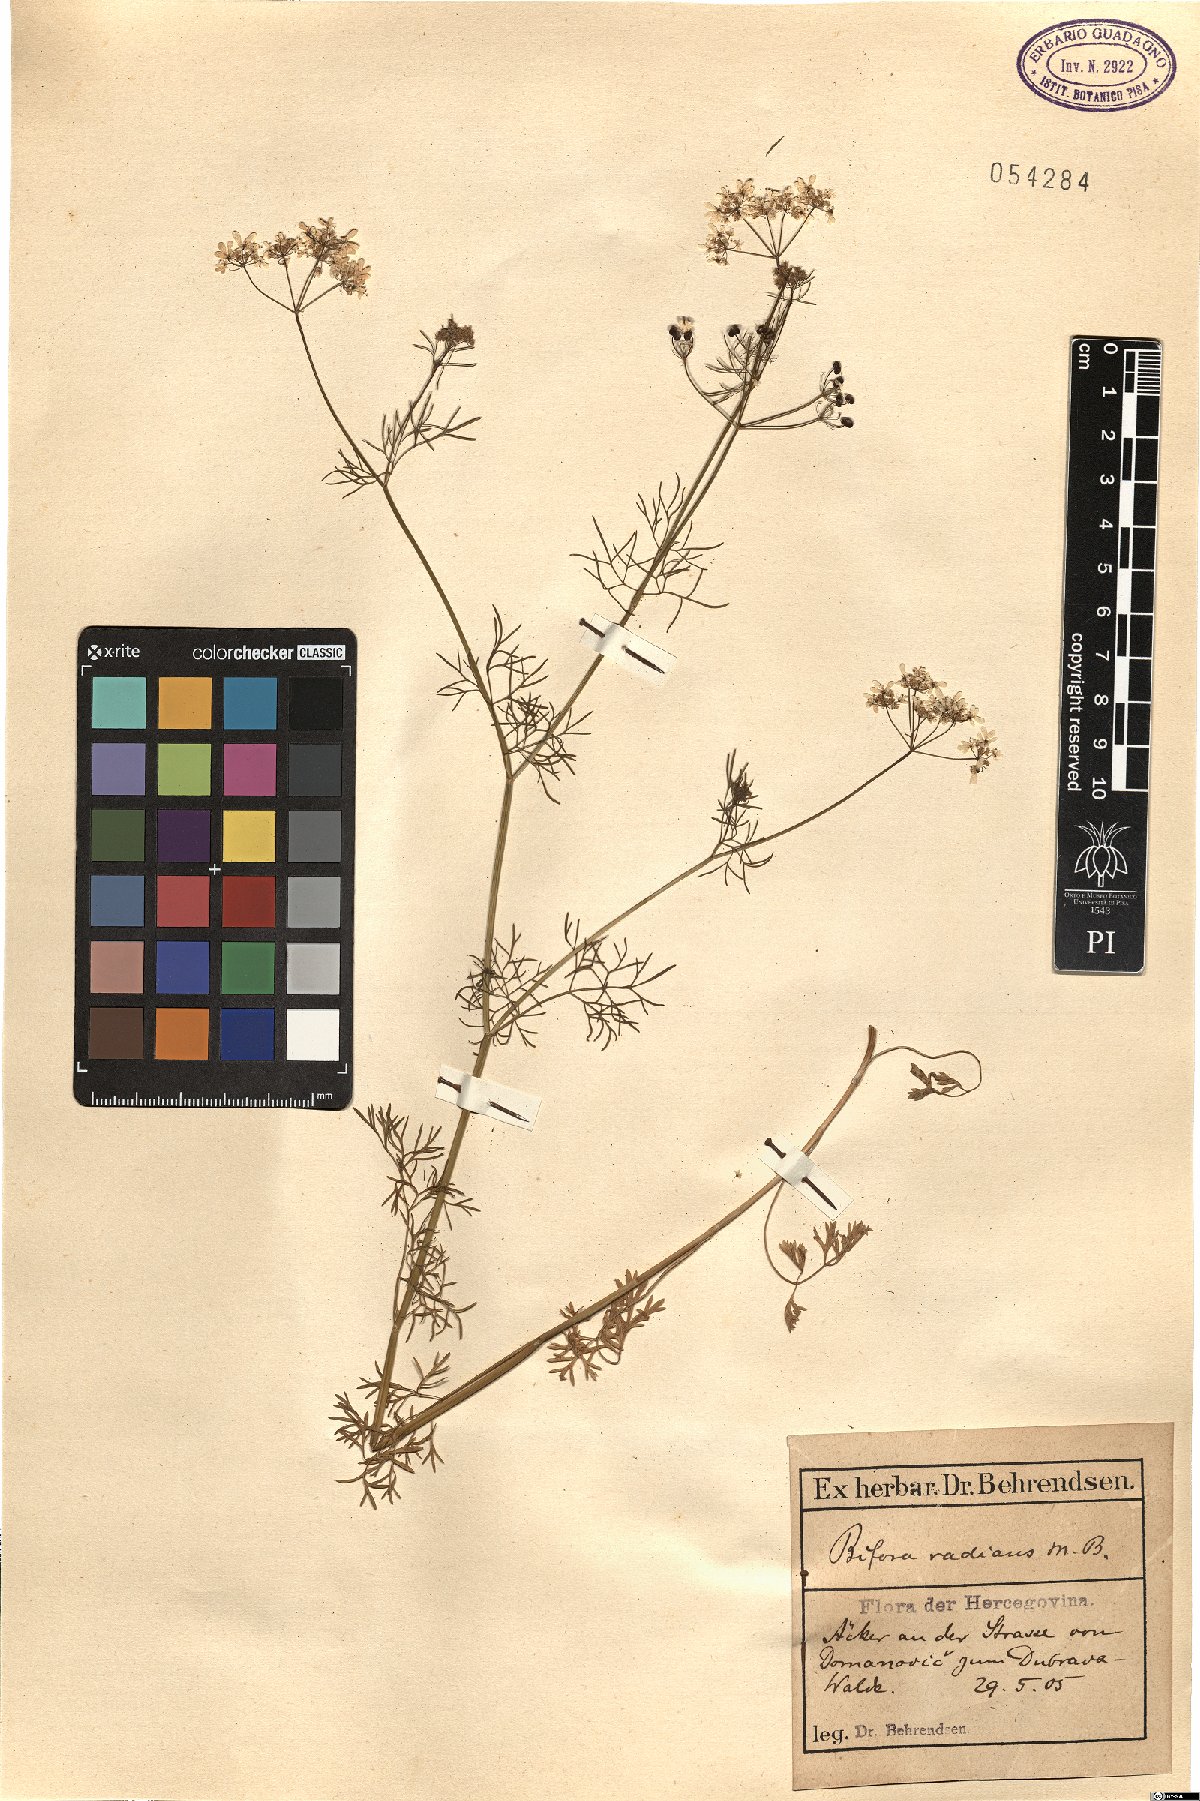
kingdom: Plantae
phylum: Tracheophyta
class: Magnoliopsida
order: Apiales
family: Apiaceae
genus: Bifora
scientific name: Bifora radians
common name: Wild bishop
